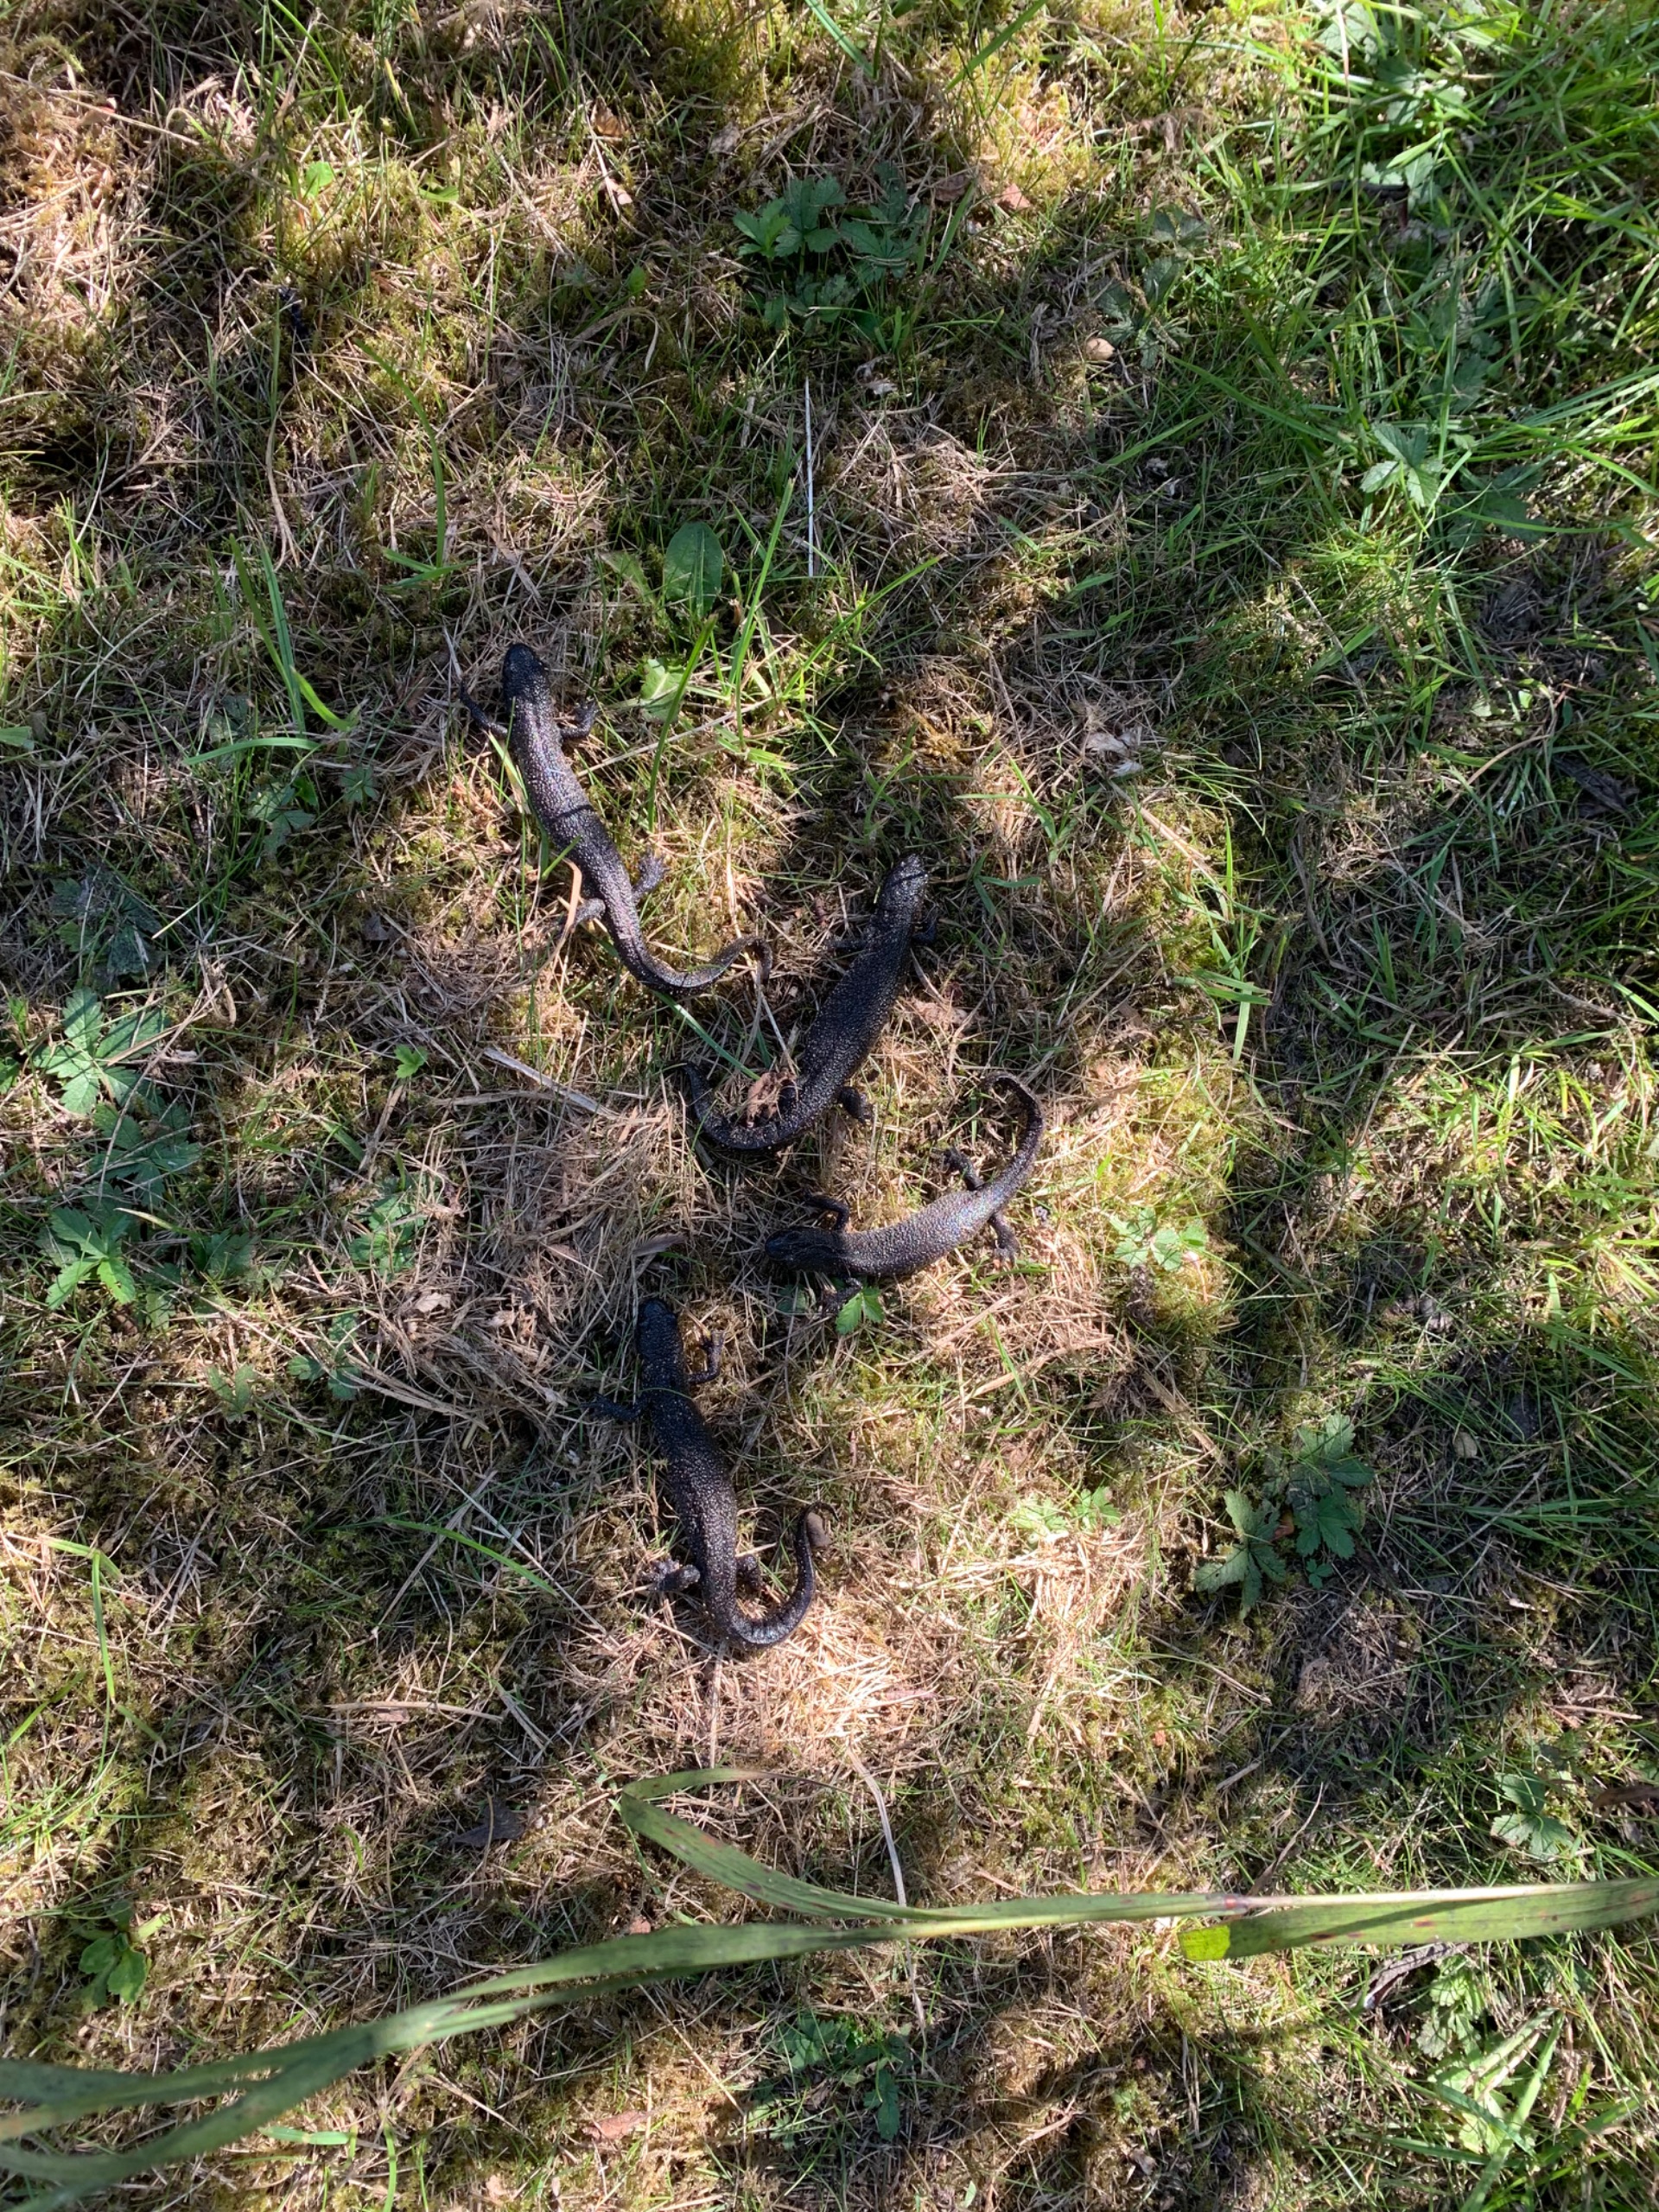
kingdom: Animalia
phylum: Chordata
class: Amphibia
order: Caudata
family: Salamandridae
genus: Triturus
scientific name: Triturus cristatus
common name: Stor vandsalamander
